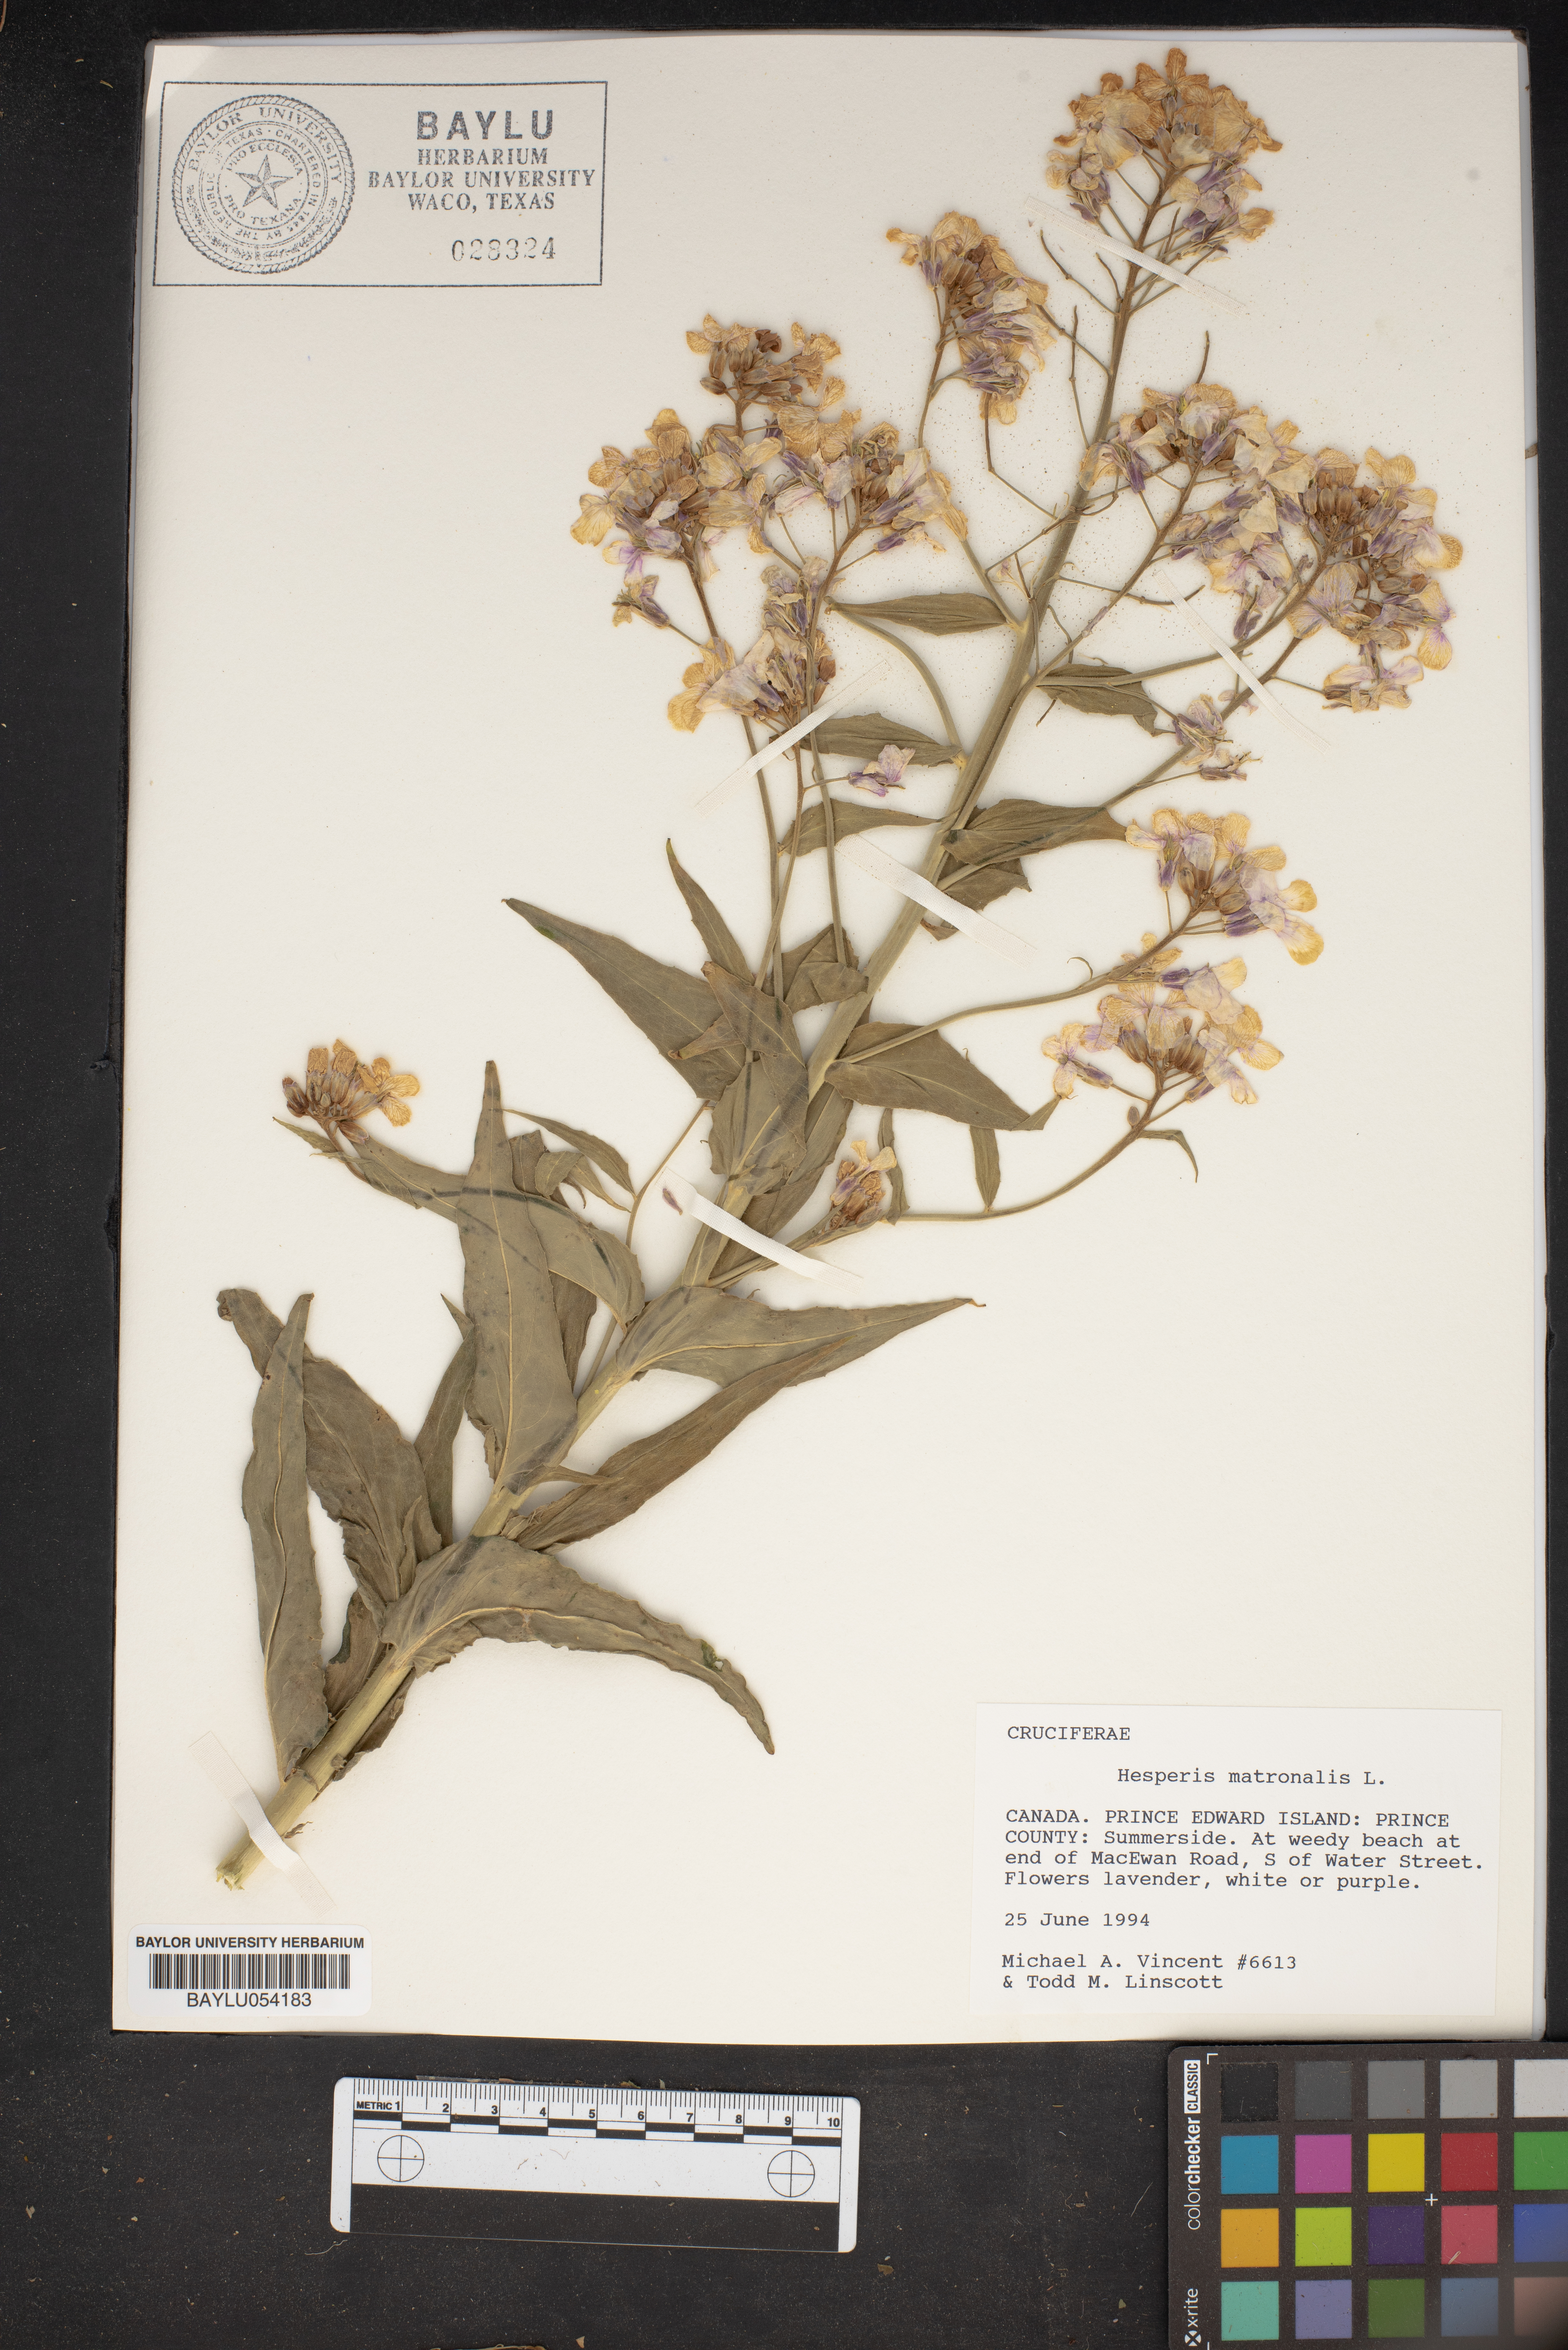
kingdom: Plantae
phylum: Tracheophyta
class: Magnoliopsida
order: Brassicales
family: Brassicaceae
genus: Hesperis
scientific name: Hesperis matronalis
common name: Dame's-violet
